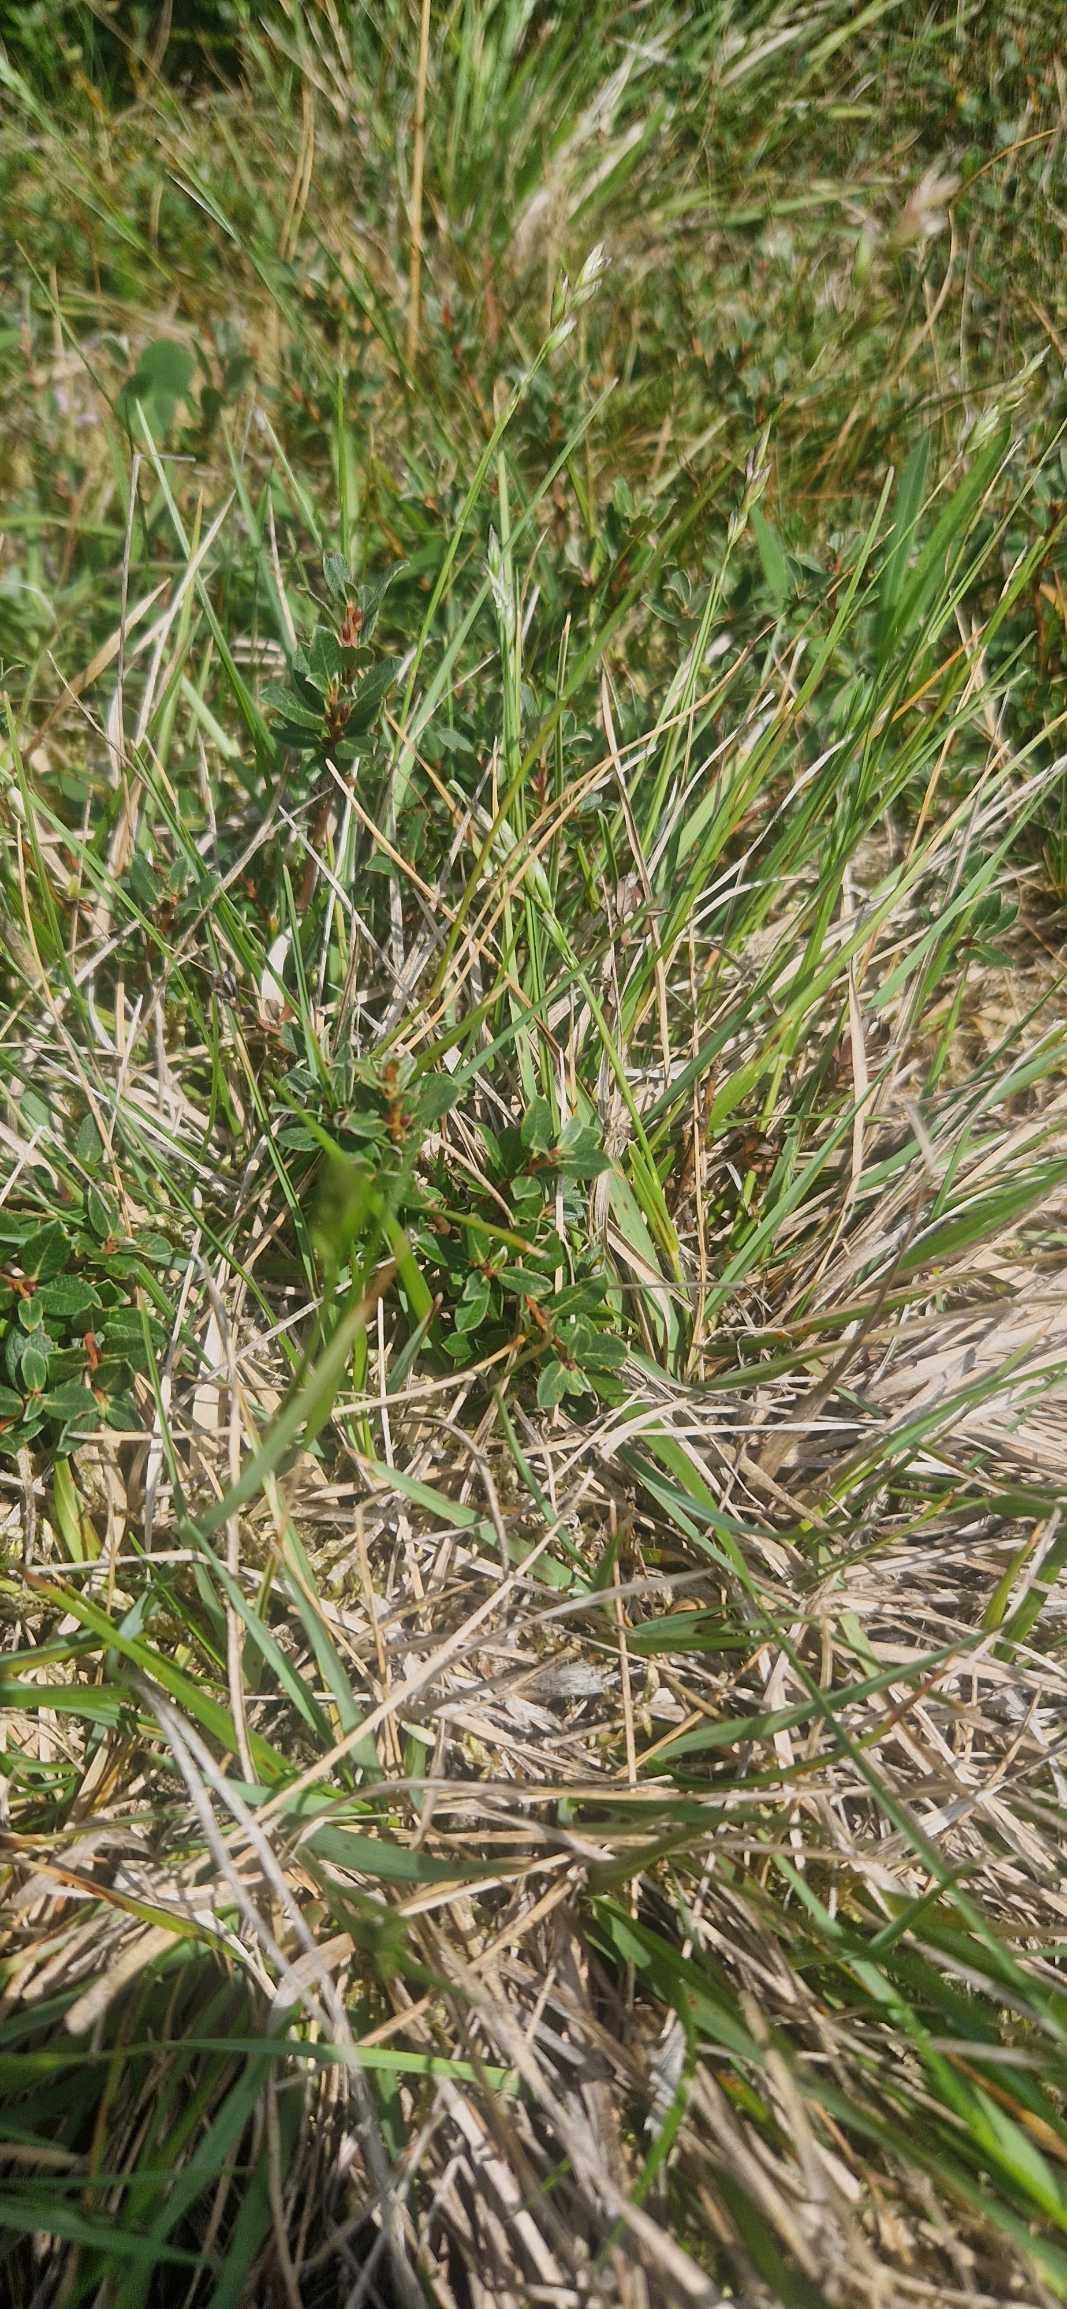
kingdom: Plantae
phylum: Tracheophyta
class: Liliopsida
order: Poales
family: Poaceae
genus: Danthonia
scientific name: Danthonia decumbens
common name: Tandbælg
